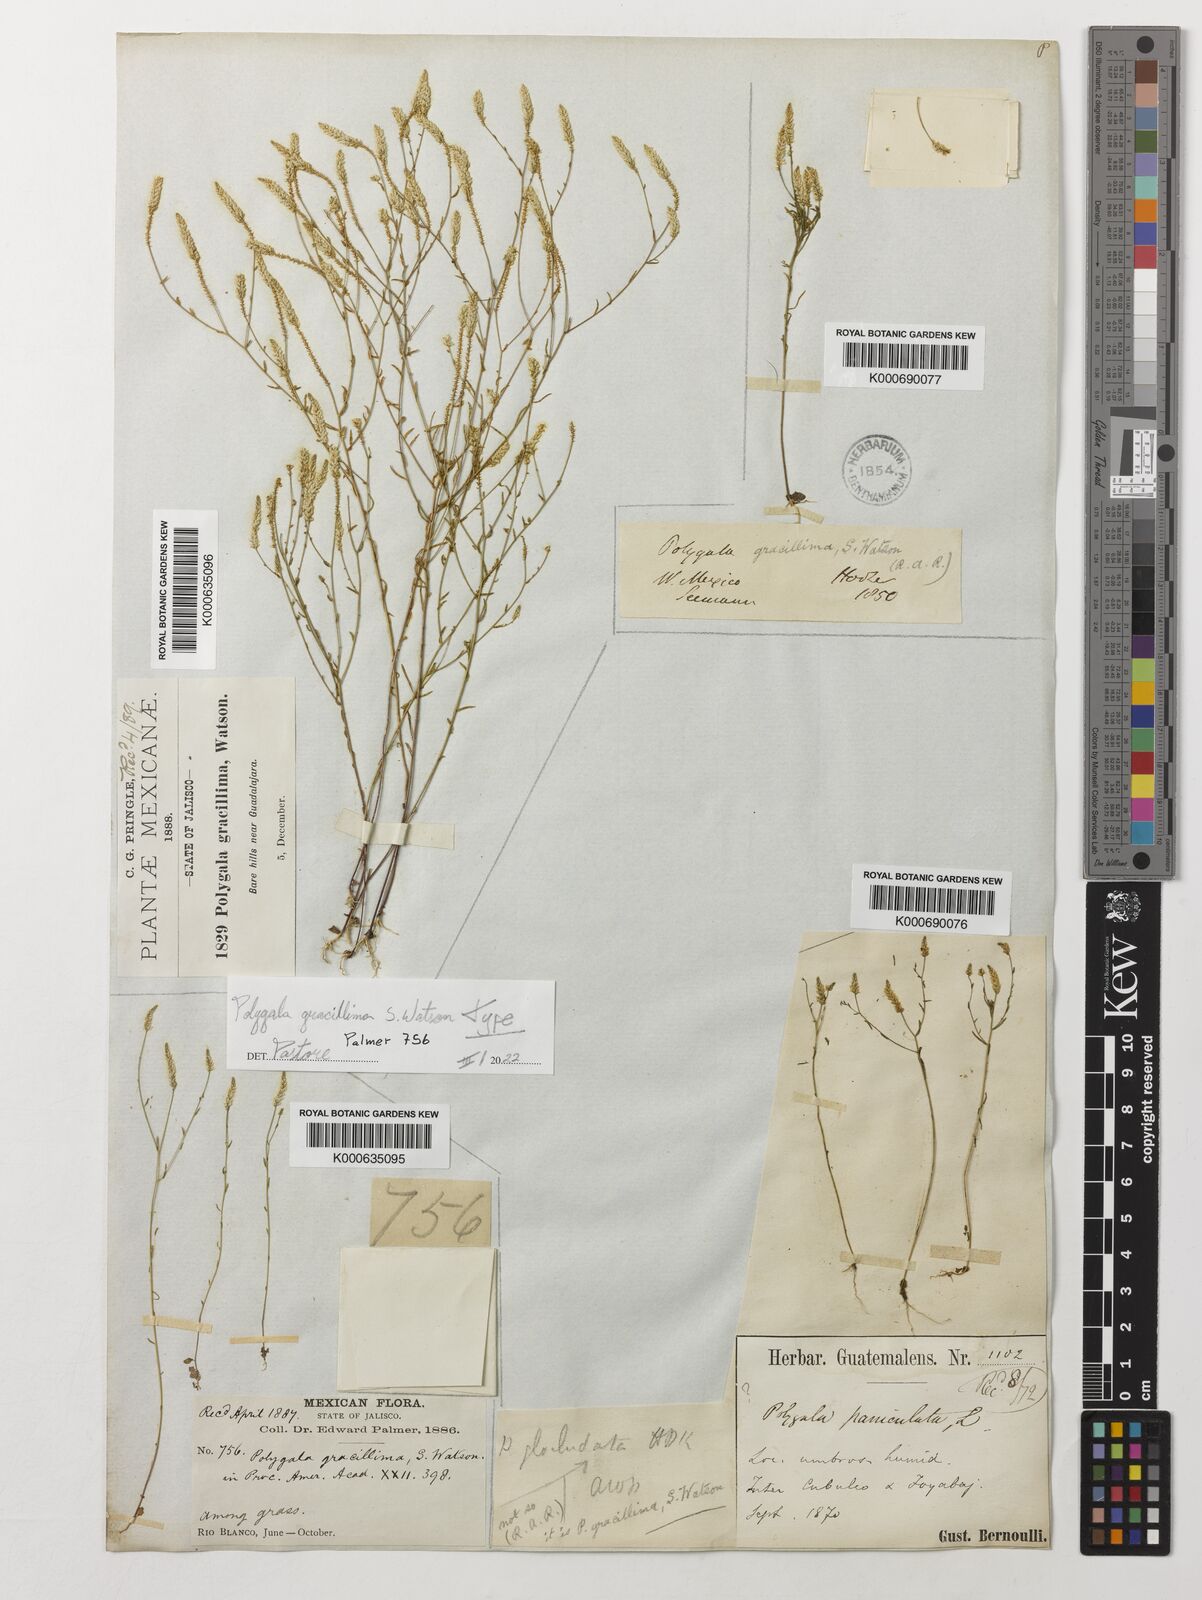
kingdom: Plantae
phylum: Tracheophyta
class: Magnoliopsida
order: Fabales
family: Polygalaceae
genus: Polygala
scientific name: Polygala gracillima
